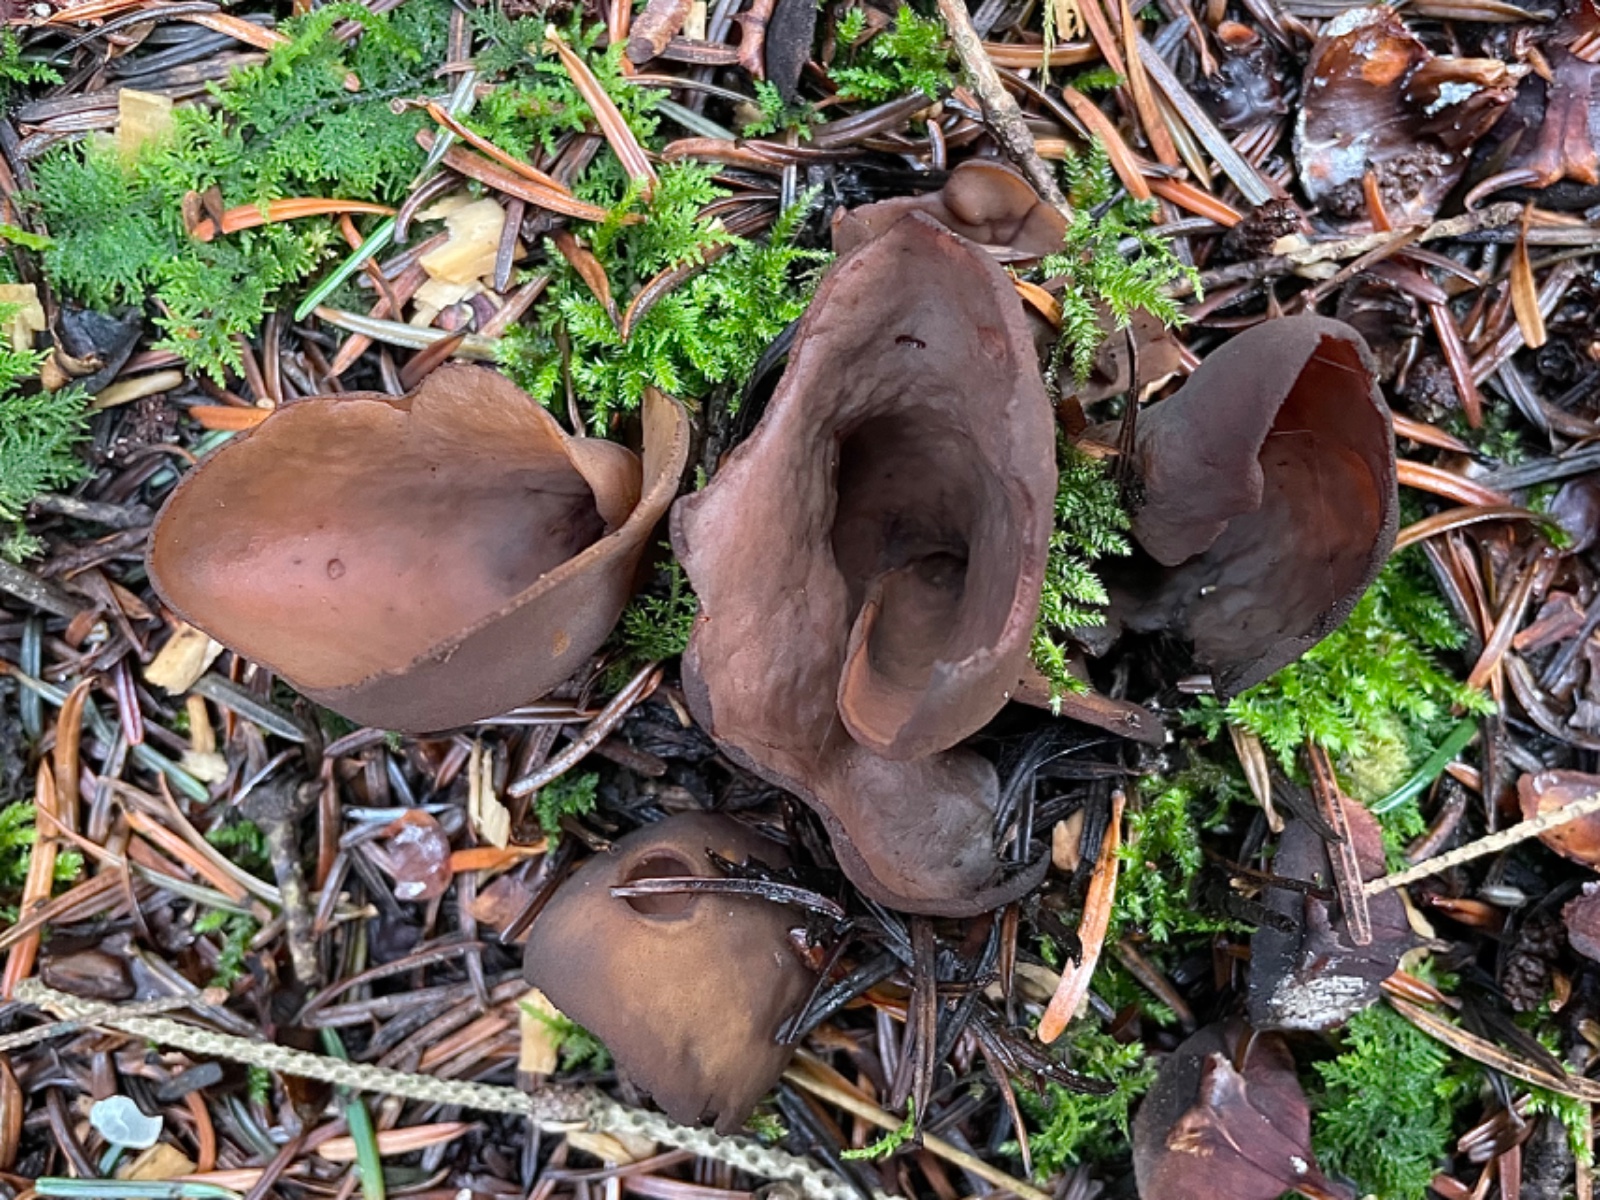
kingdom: Fungi
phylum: Ascomycota
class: Pezizomycetes
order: Pezizales
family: Otideaceae
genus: Otidea
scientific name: Otidea bufonia
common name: brun ørebæger
